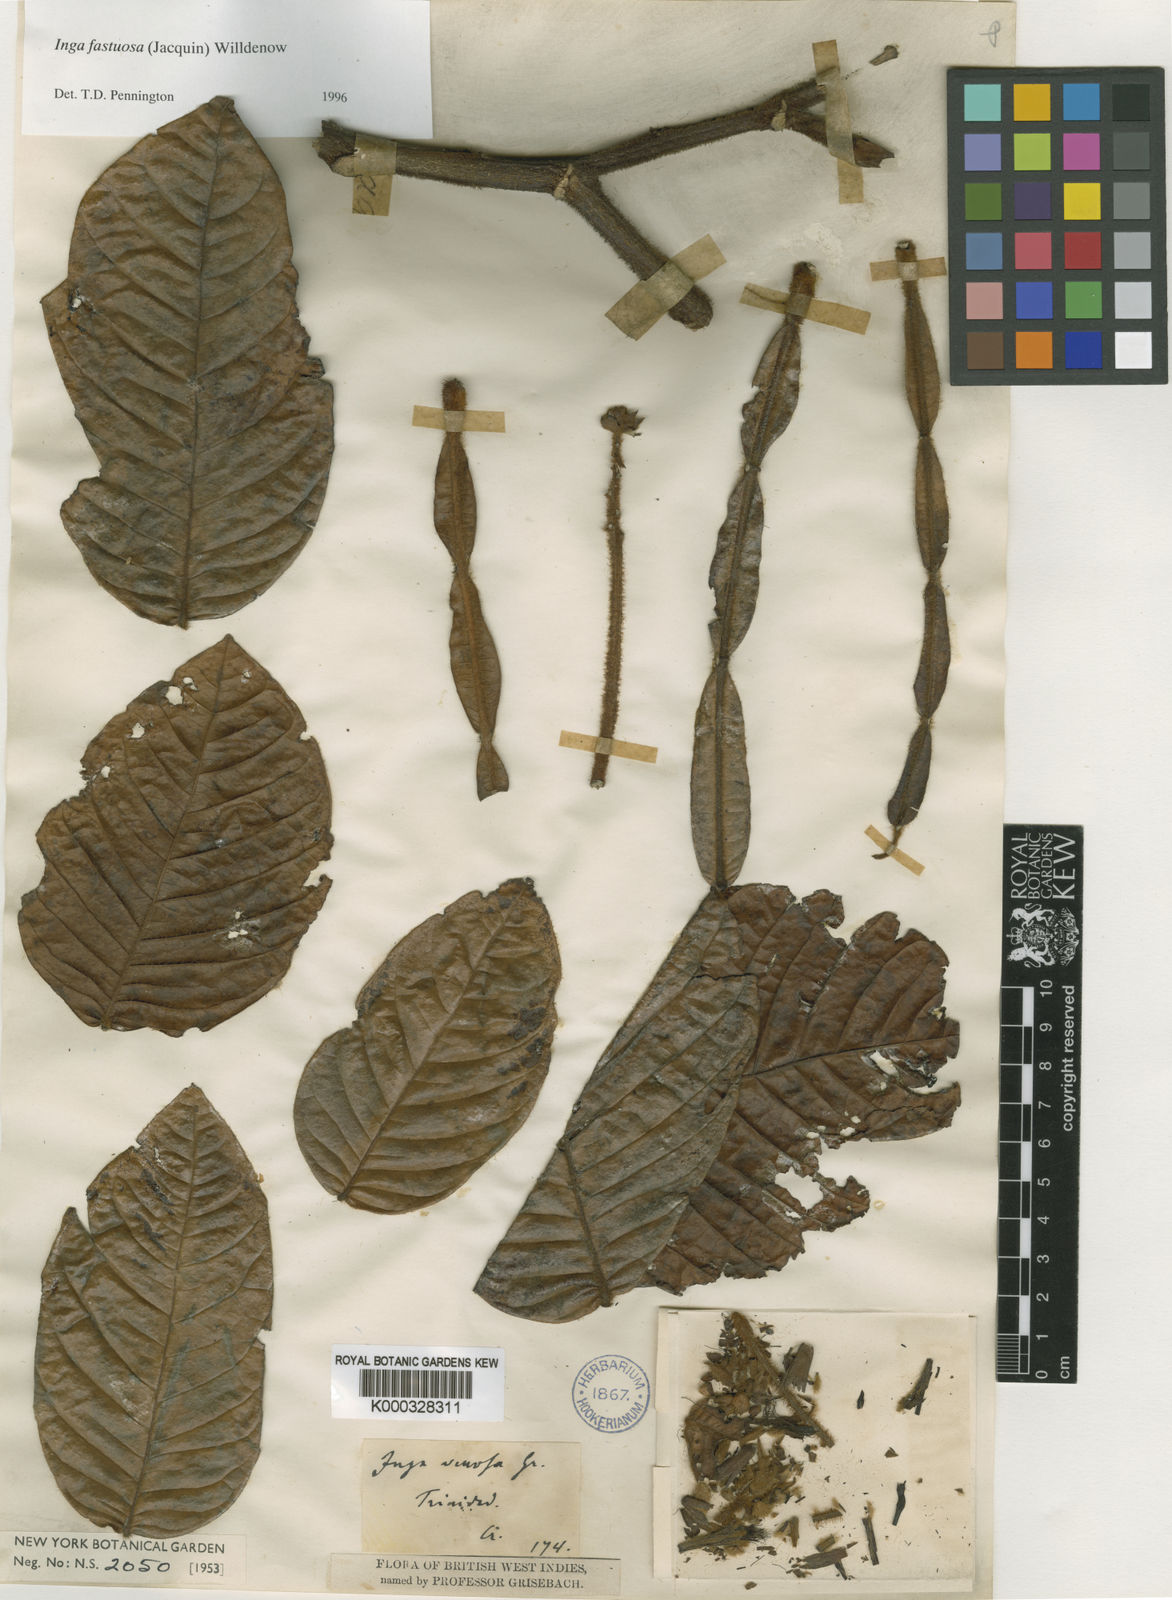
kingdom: Plantae
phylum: Tracheophyta
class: Magnoliopsida
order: Fabales
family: Fabaceae
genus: Inga
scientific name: Inga fastuosa
